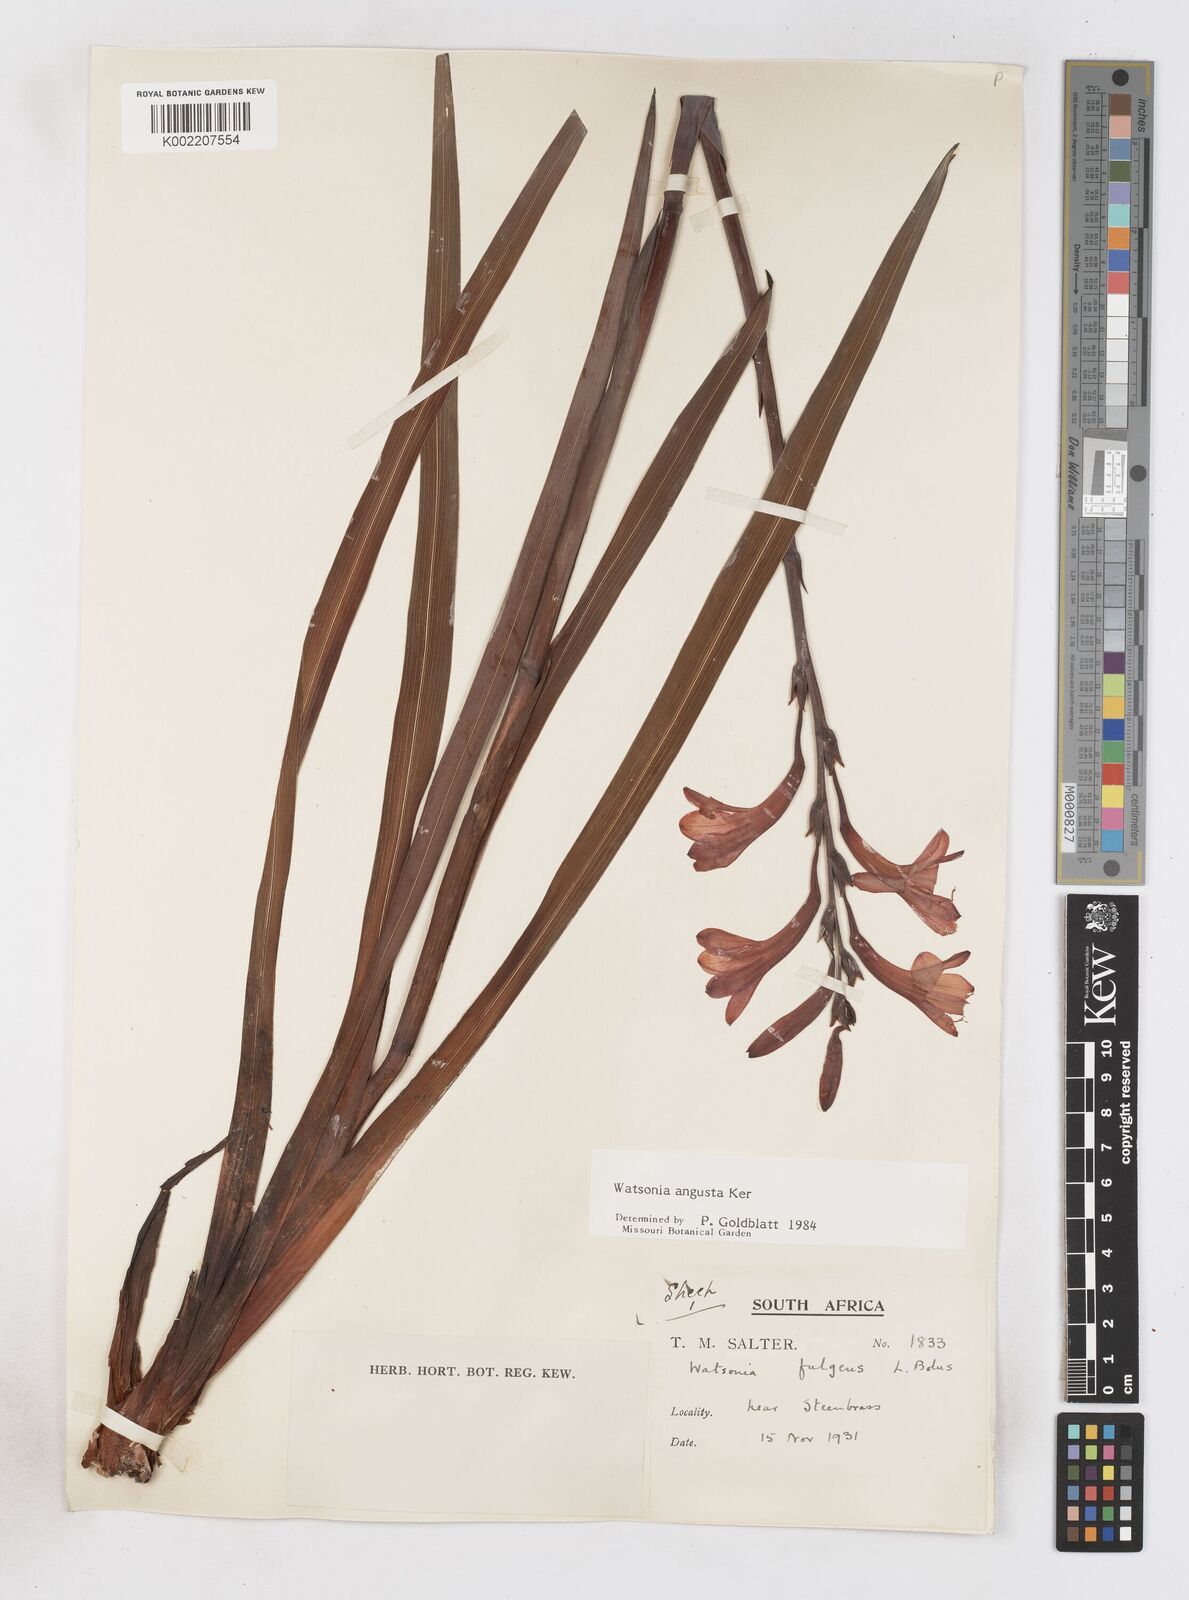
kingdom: Plantae
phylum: Tracheophyta
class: Liliopsida
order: Asparagales
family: Iridaceae
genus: Watsonia
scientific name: Watsonia angusta
